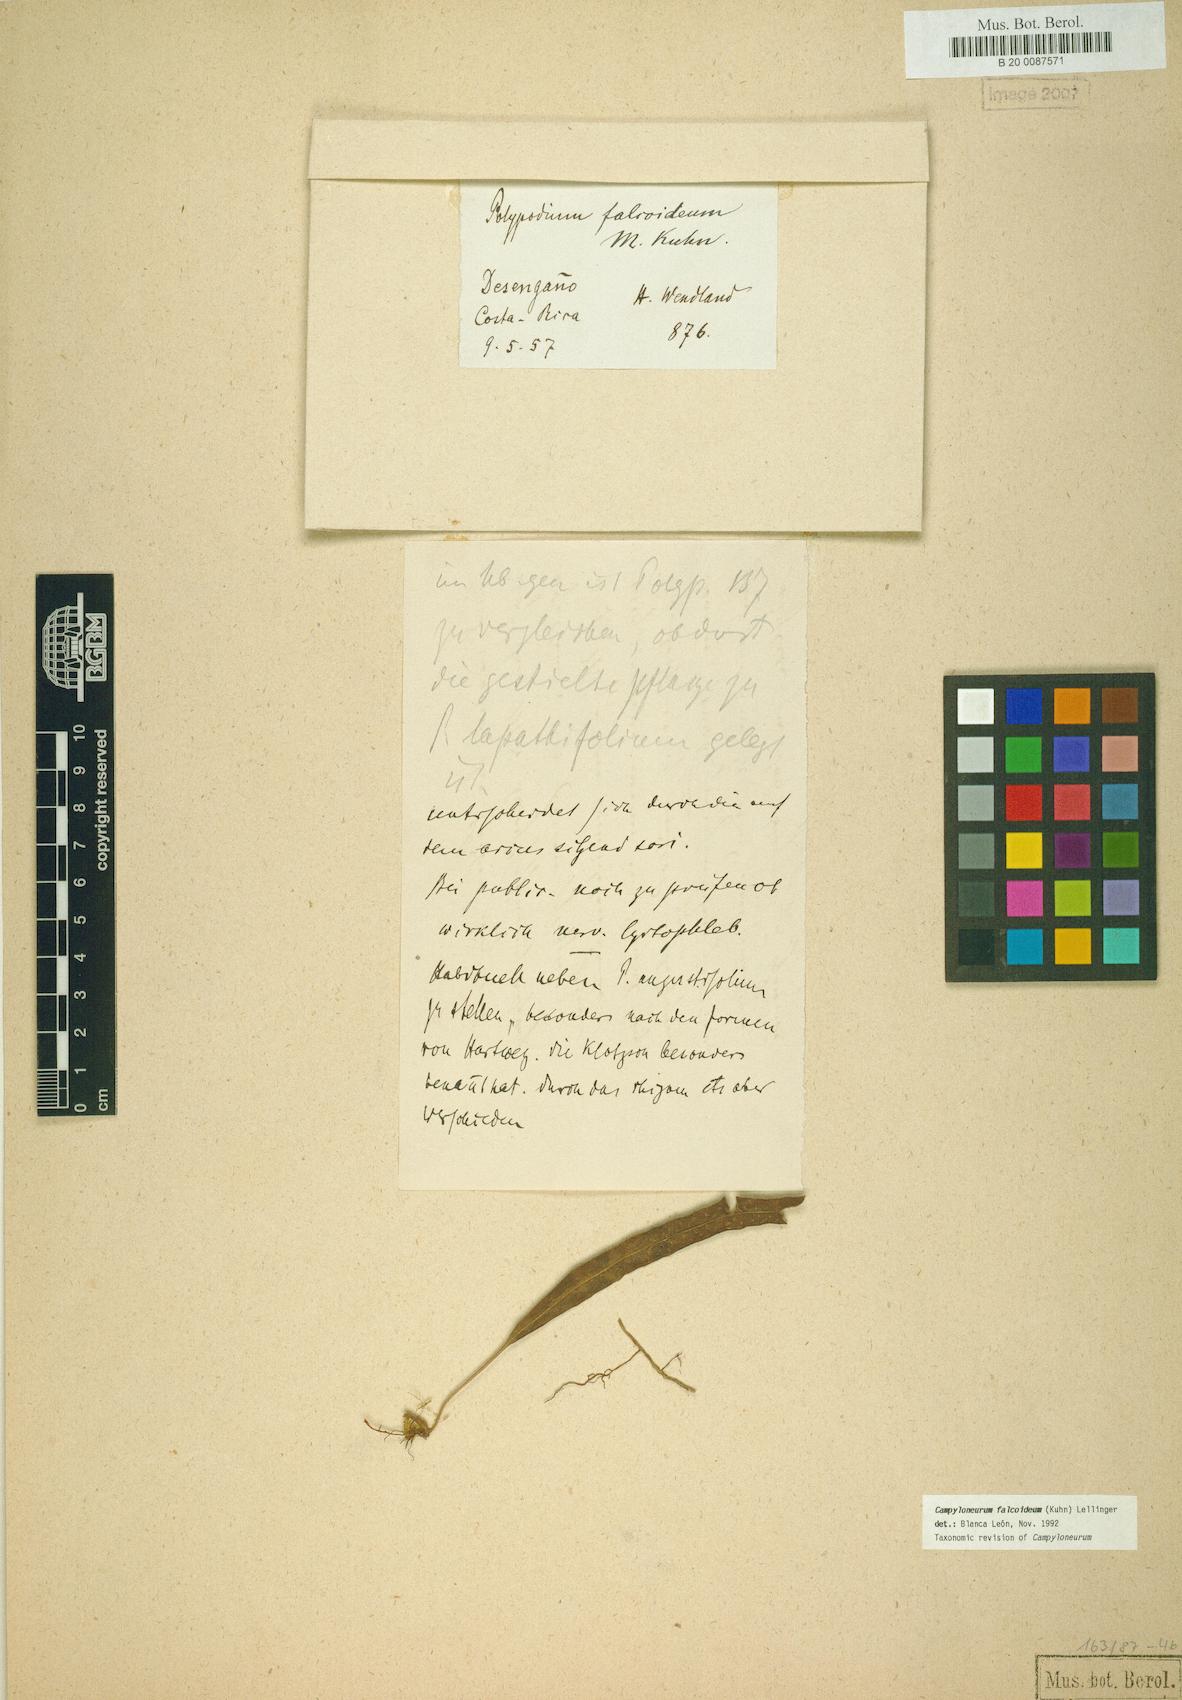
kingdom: Plantae
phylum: Tracheophyta
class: Polypodiopsida
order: Polypodiales
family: Polypodiaceae
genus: Campyloneurum
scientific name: Campyloneurum falcoideum
